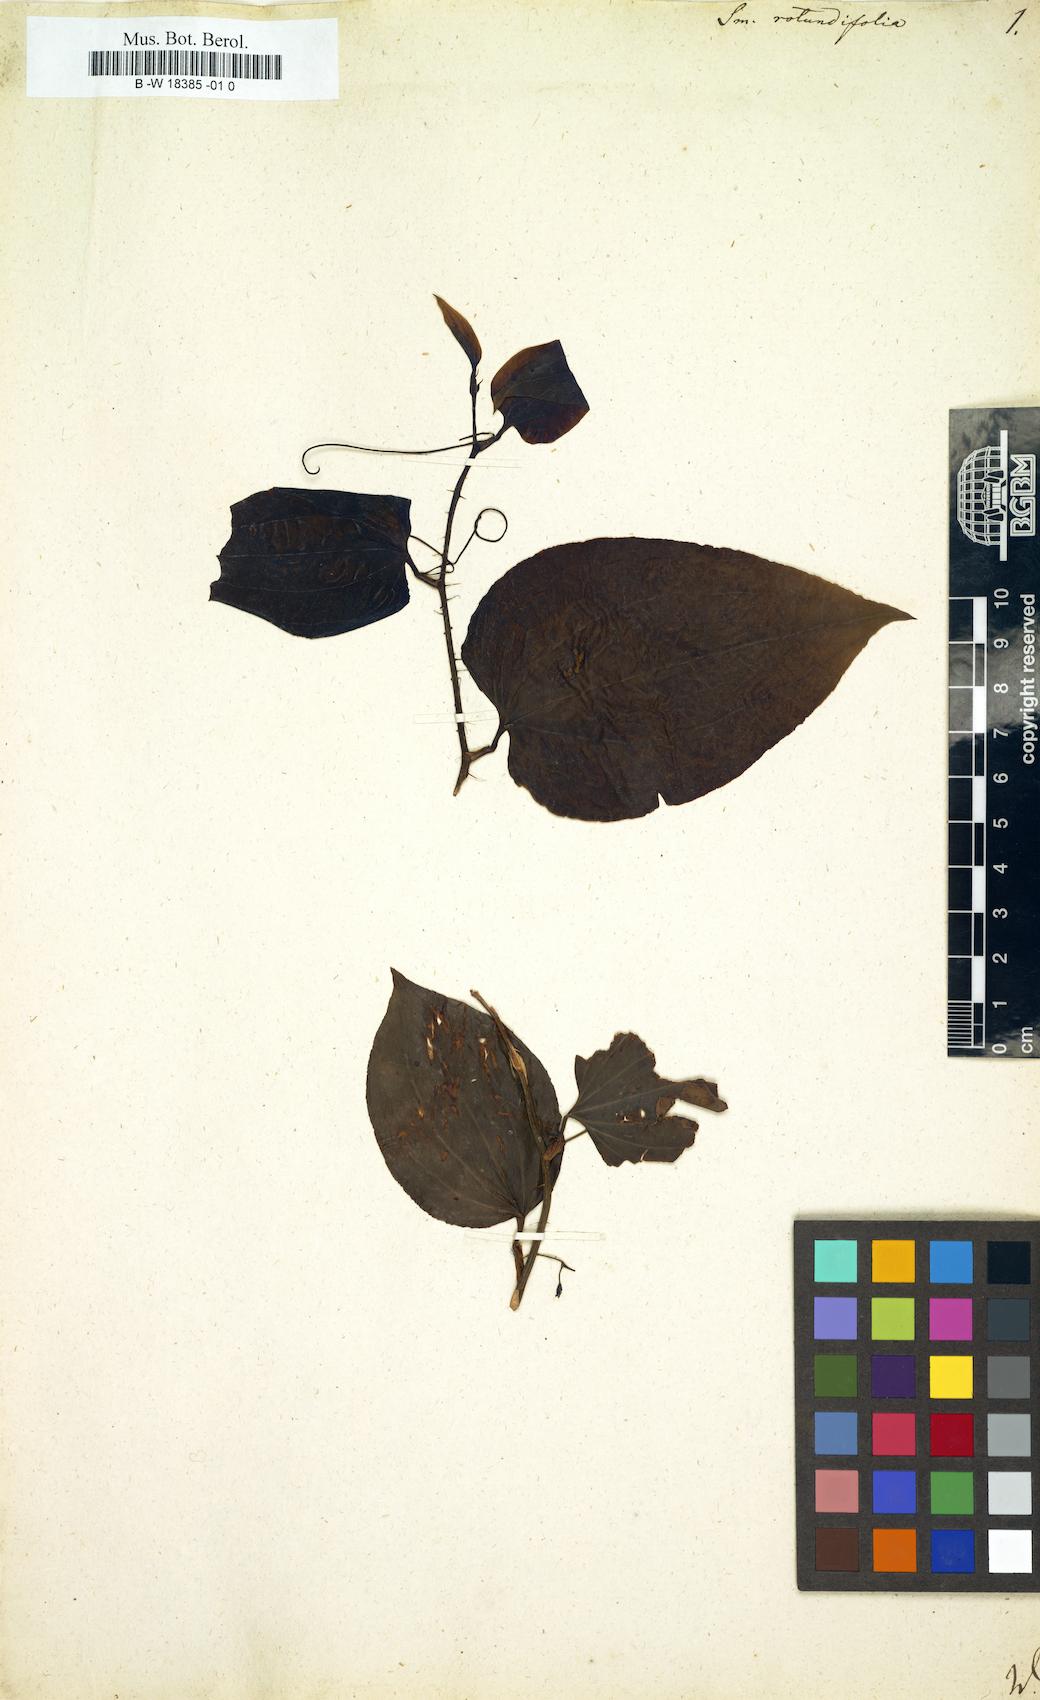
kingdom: Plantae
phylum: Tracheophyta
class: Liliopsida
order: Liliales
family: Smilacaceae
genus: Smilax
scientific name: Smilax rotundifolia
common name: Bullbriar
